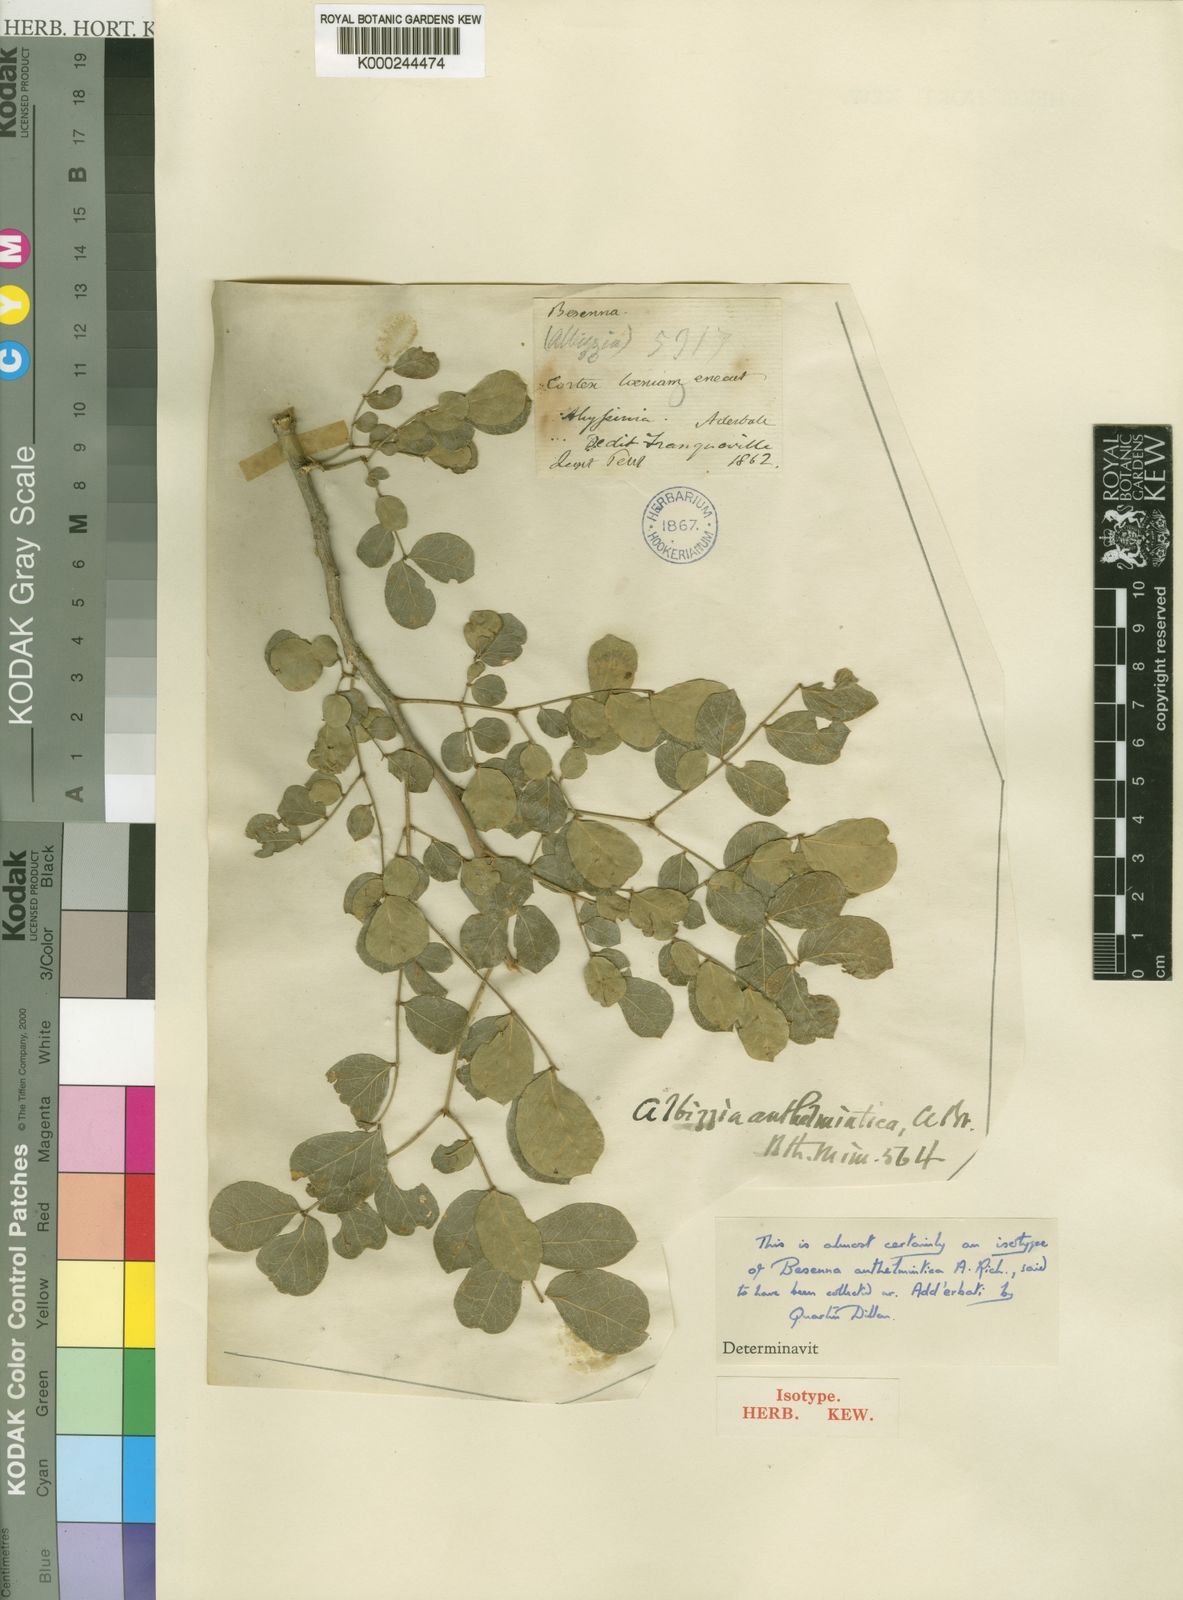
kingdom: Plantae
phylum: Tracheophyta
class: Magnoliopsida
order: Fabales
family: Fabaceae
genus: Albizia
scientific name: Albizia anthelmintica
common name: Worm-bark false-thorn
